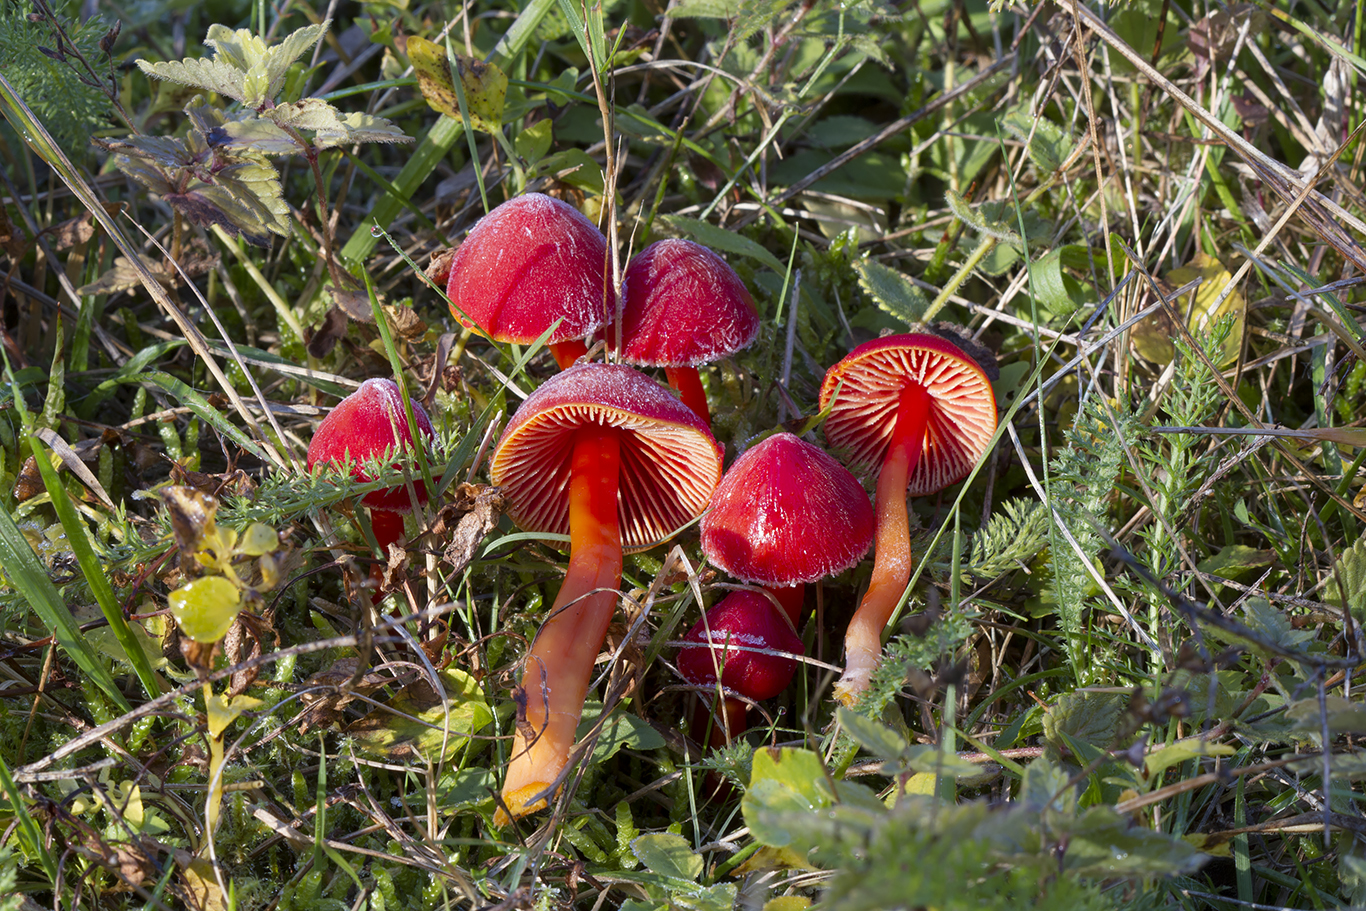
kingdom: Fungi
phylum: Basidiomycota
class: Agaricomycetes
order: Agaricales
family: Hygrophoraceae
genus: Hygrocybe
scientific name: Hygrocybe coccinea
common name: cinnober-vokshat
